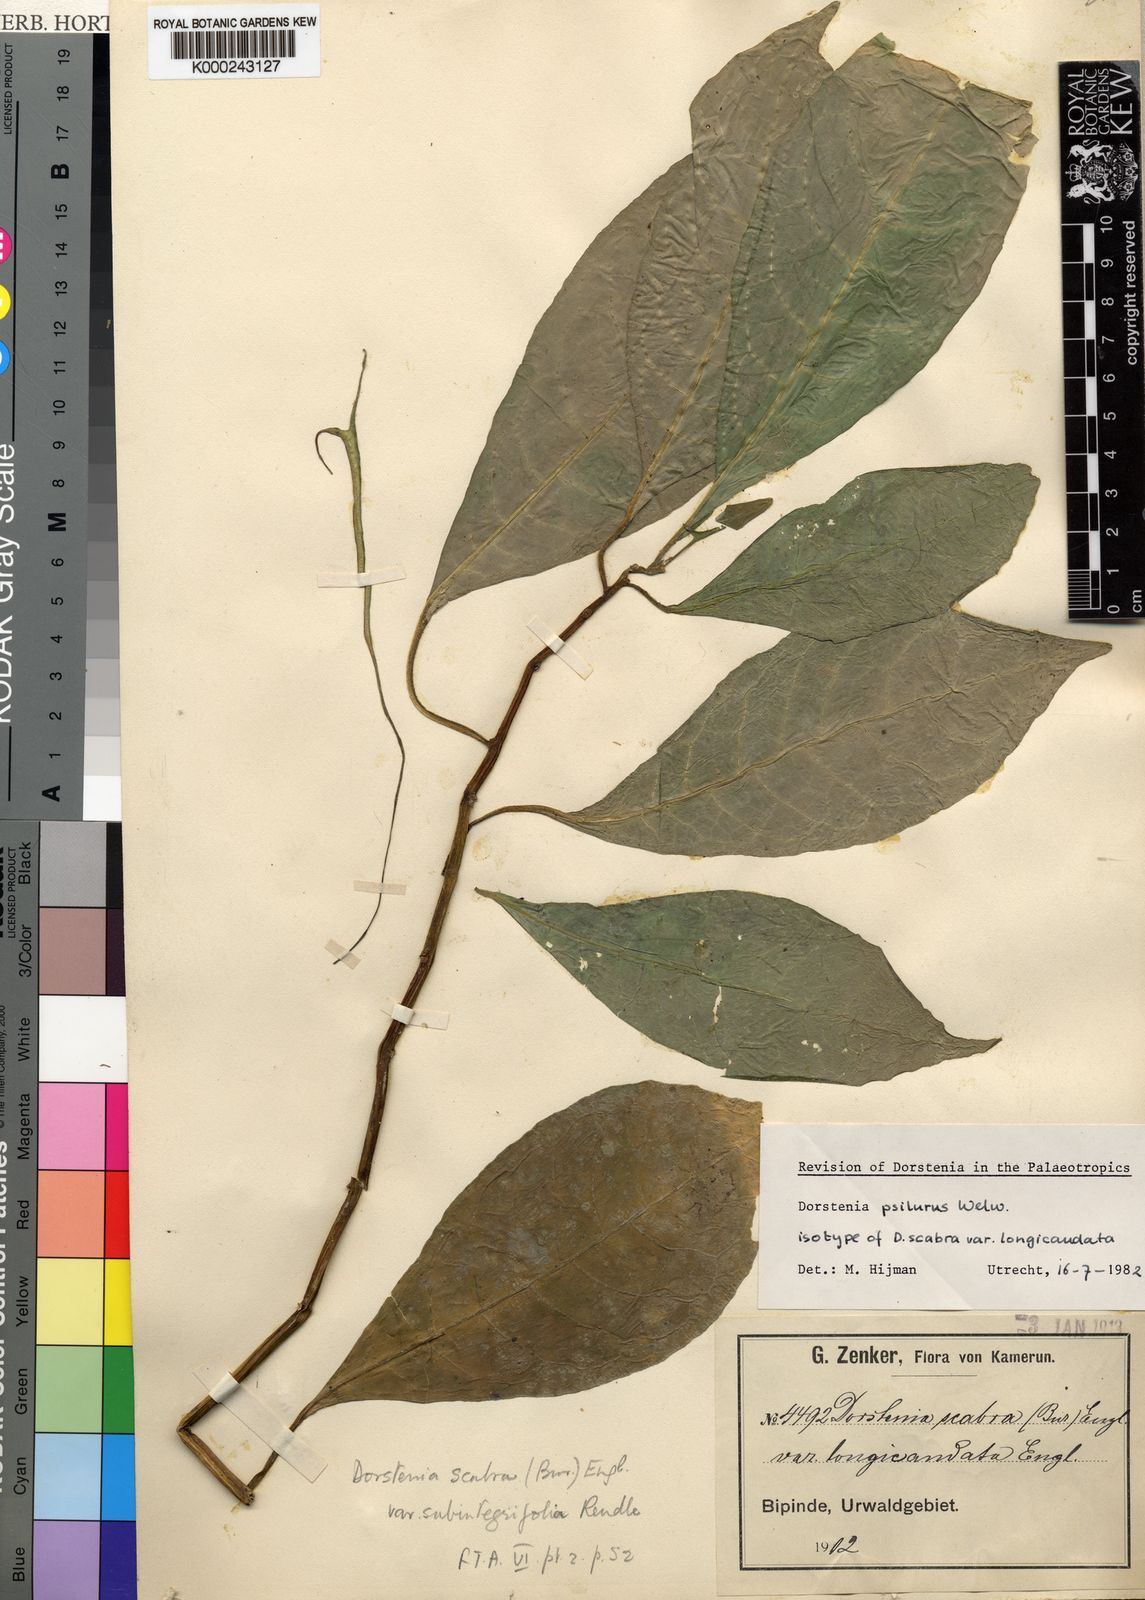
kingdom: Plantae
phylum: Tracheophyta
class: Magnoliopsida
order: Rosales
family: Moraceae
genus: Dorstenia
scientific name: Dorstenia psilurus
